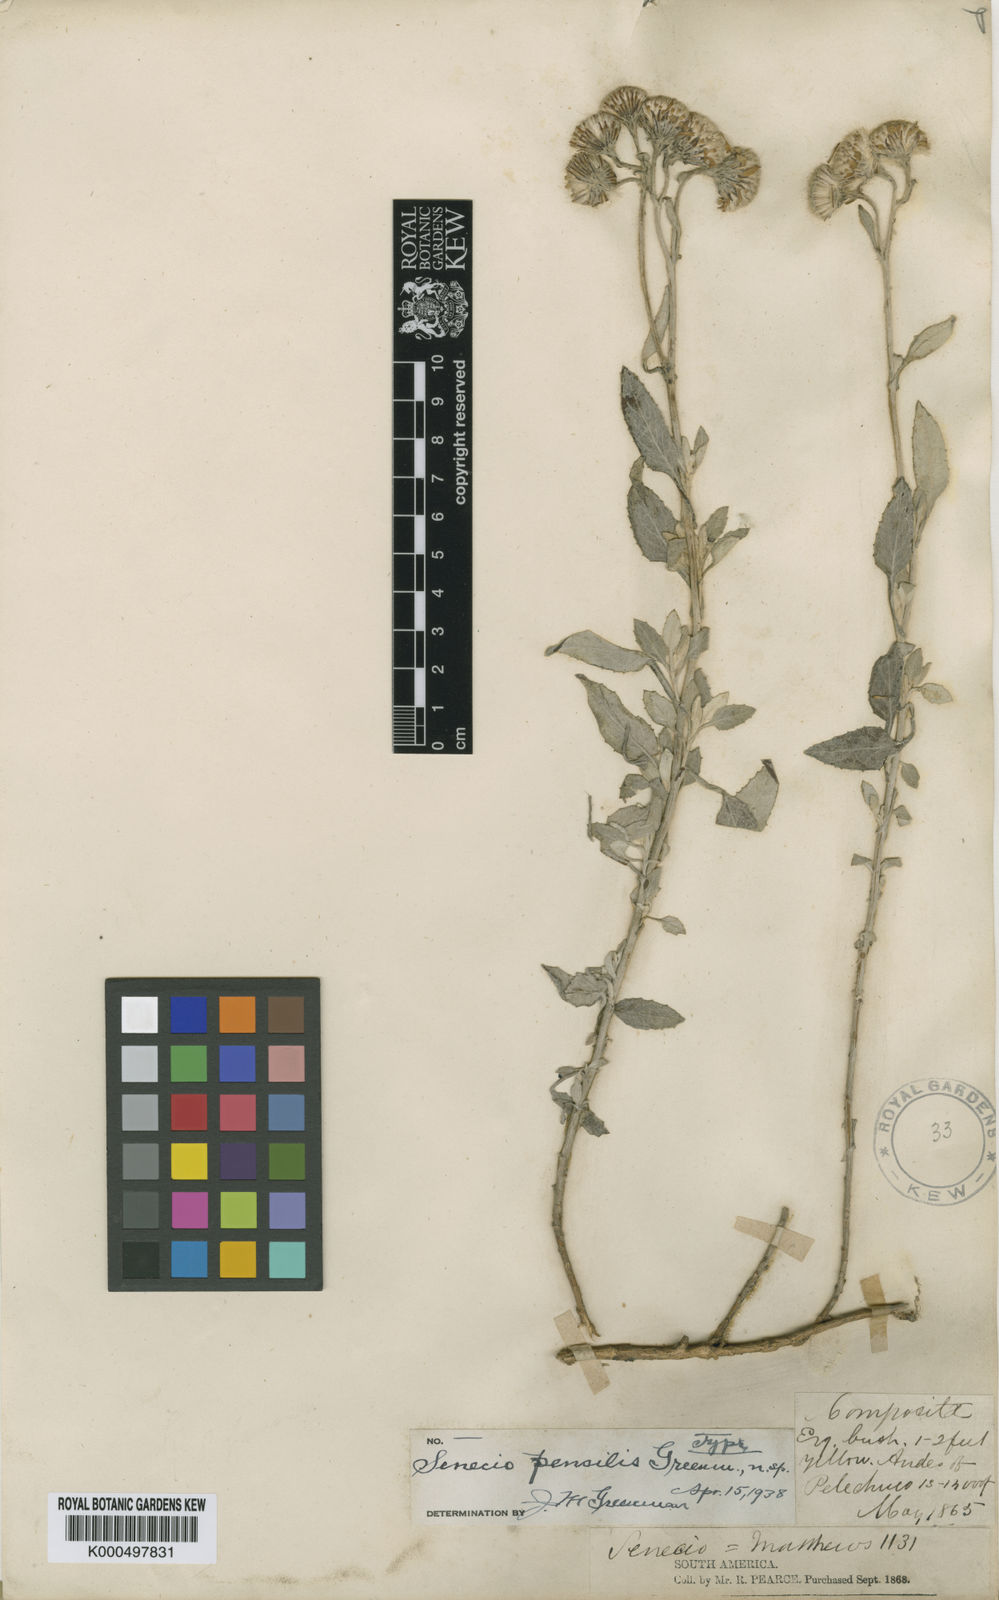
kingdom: Plantae
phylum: Tracheophyta
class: Magnoliopsida
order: Asterales
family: Asteraceae
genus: Senecio
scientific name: Senecio pensilis
